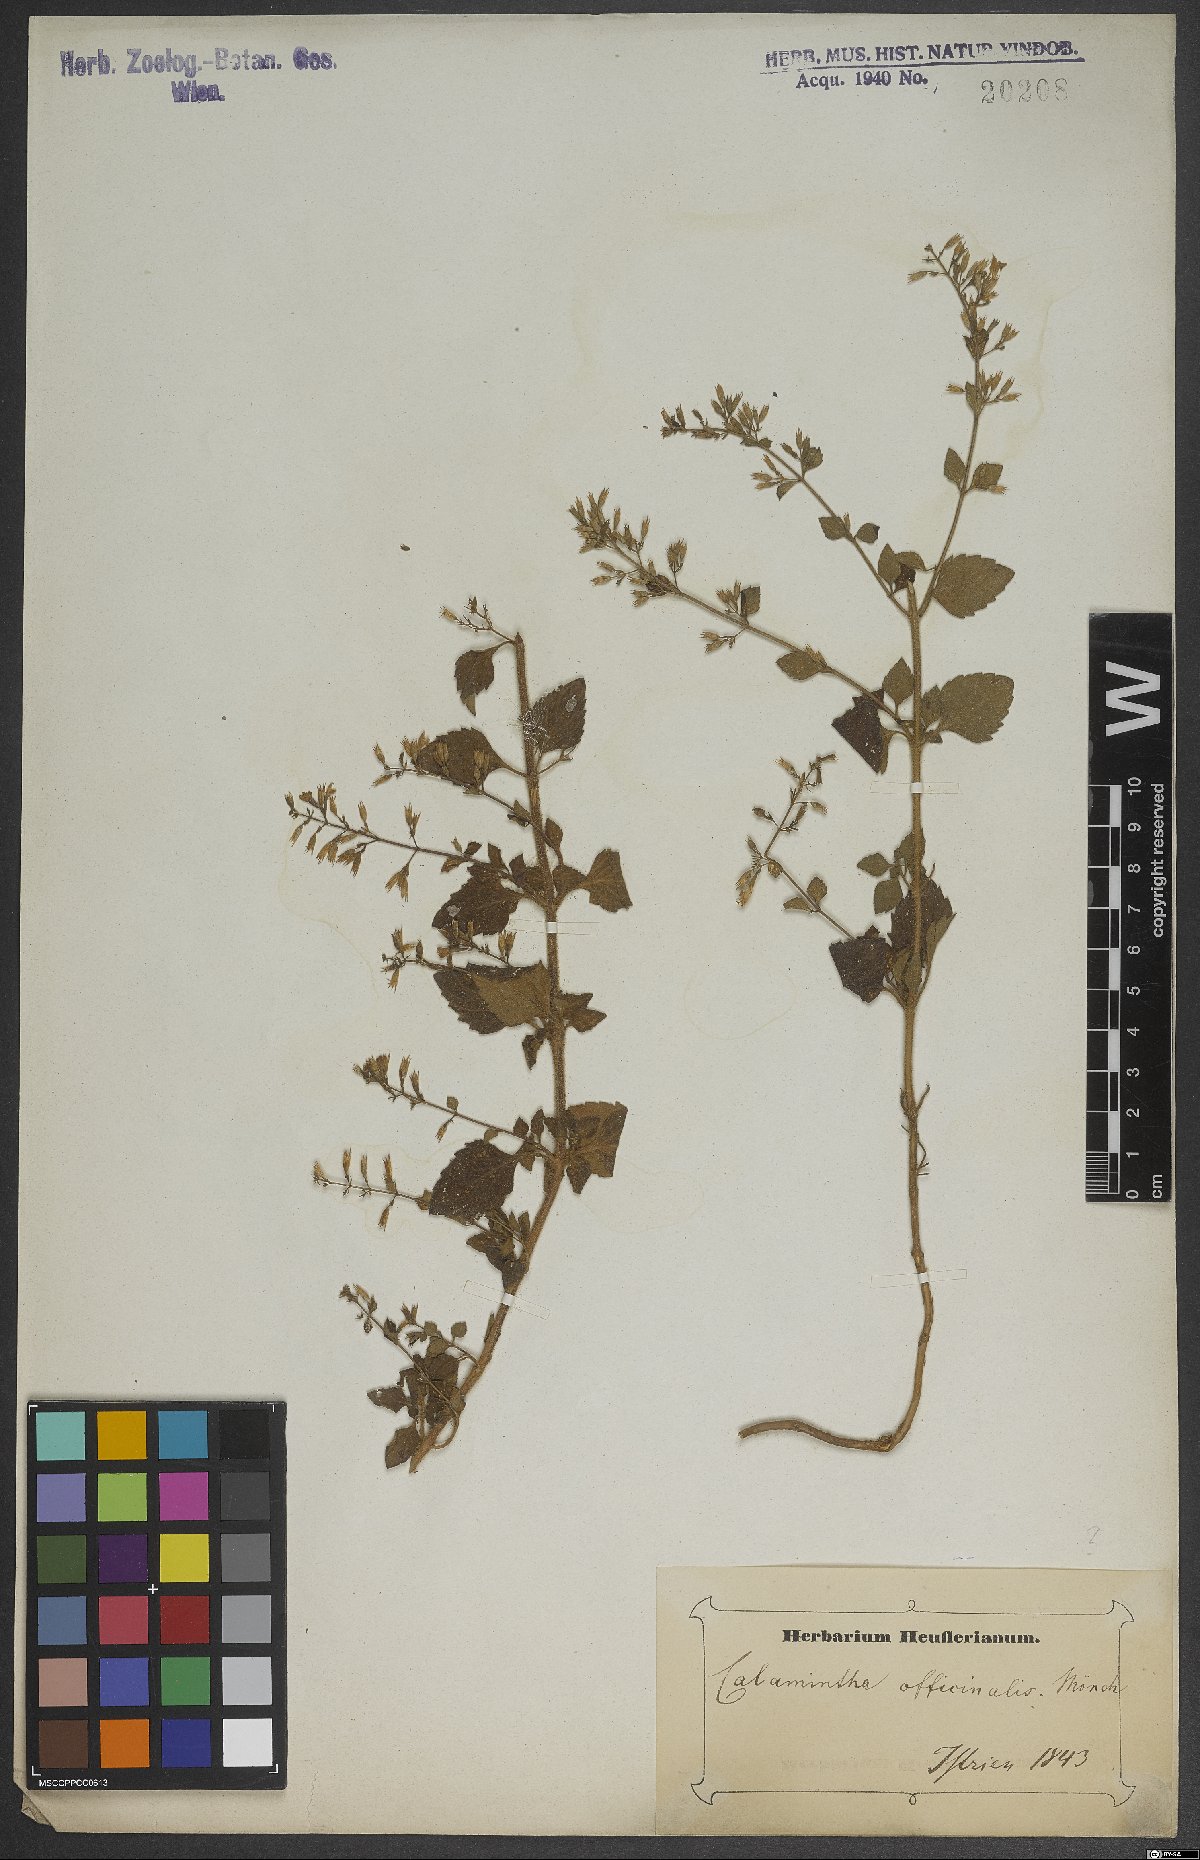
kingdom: Plantae
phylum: Tracheophyta
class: Magnoliopsida
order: Lamiales
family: Lamiaceae
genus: Clinopodium
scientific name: Clinopodium nepeta
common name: Lesser calamint
